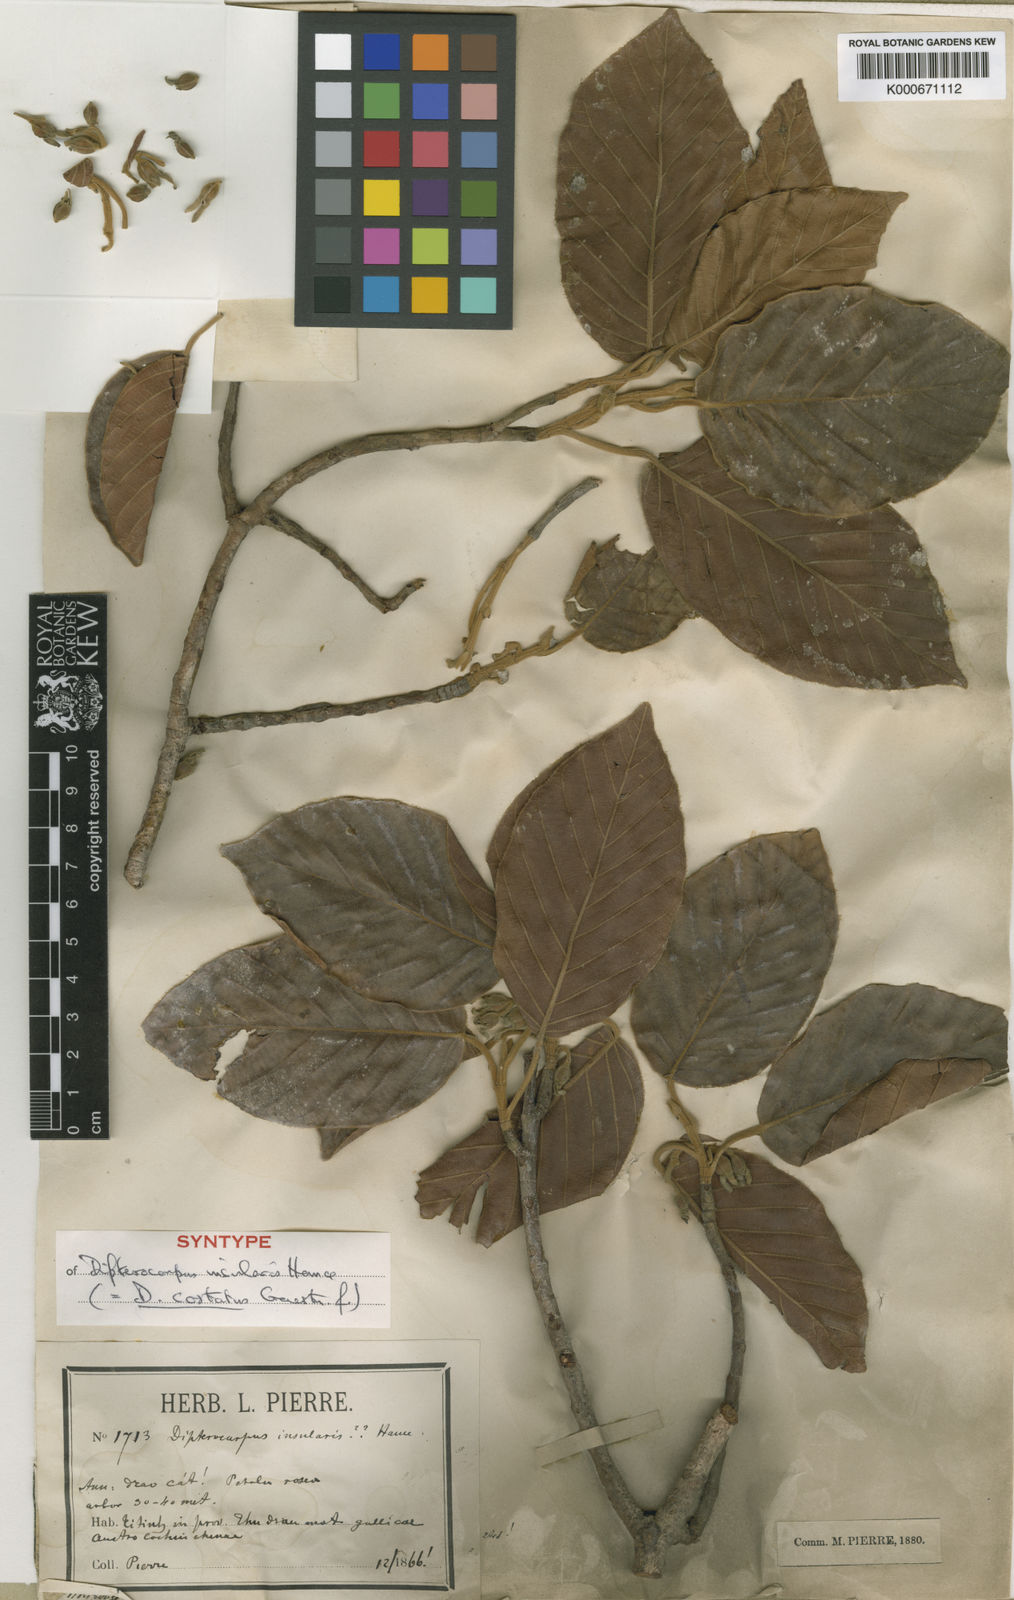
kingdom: Plantae
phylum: Tracheophyta
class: Magnoliopsida
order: Malvales
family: Dipterocarpaceae
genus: Dipterocarpus
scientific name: Dipterocarpus costatus
